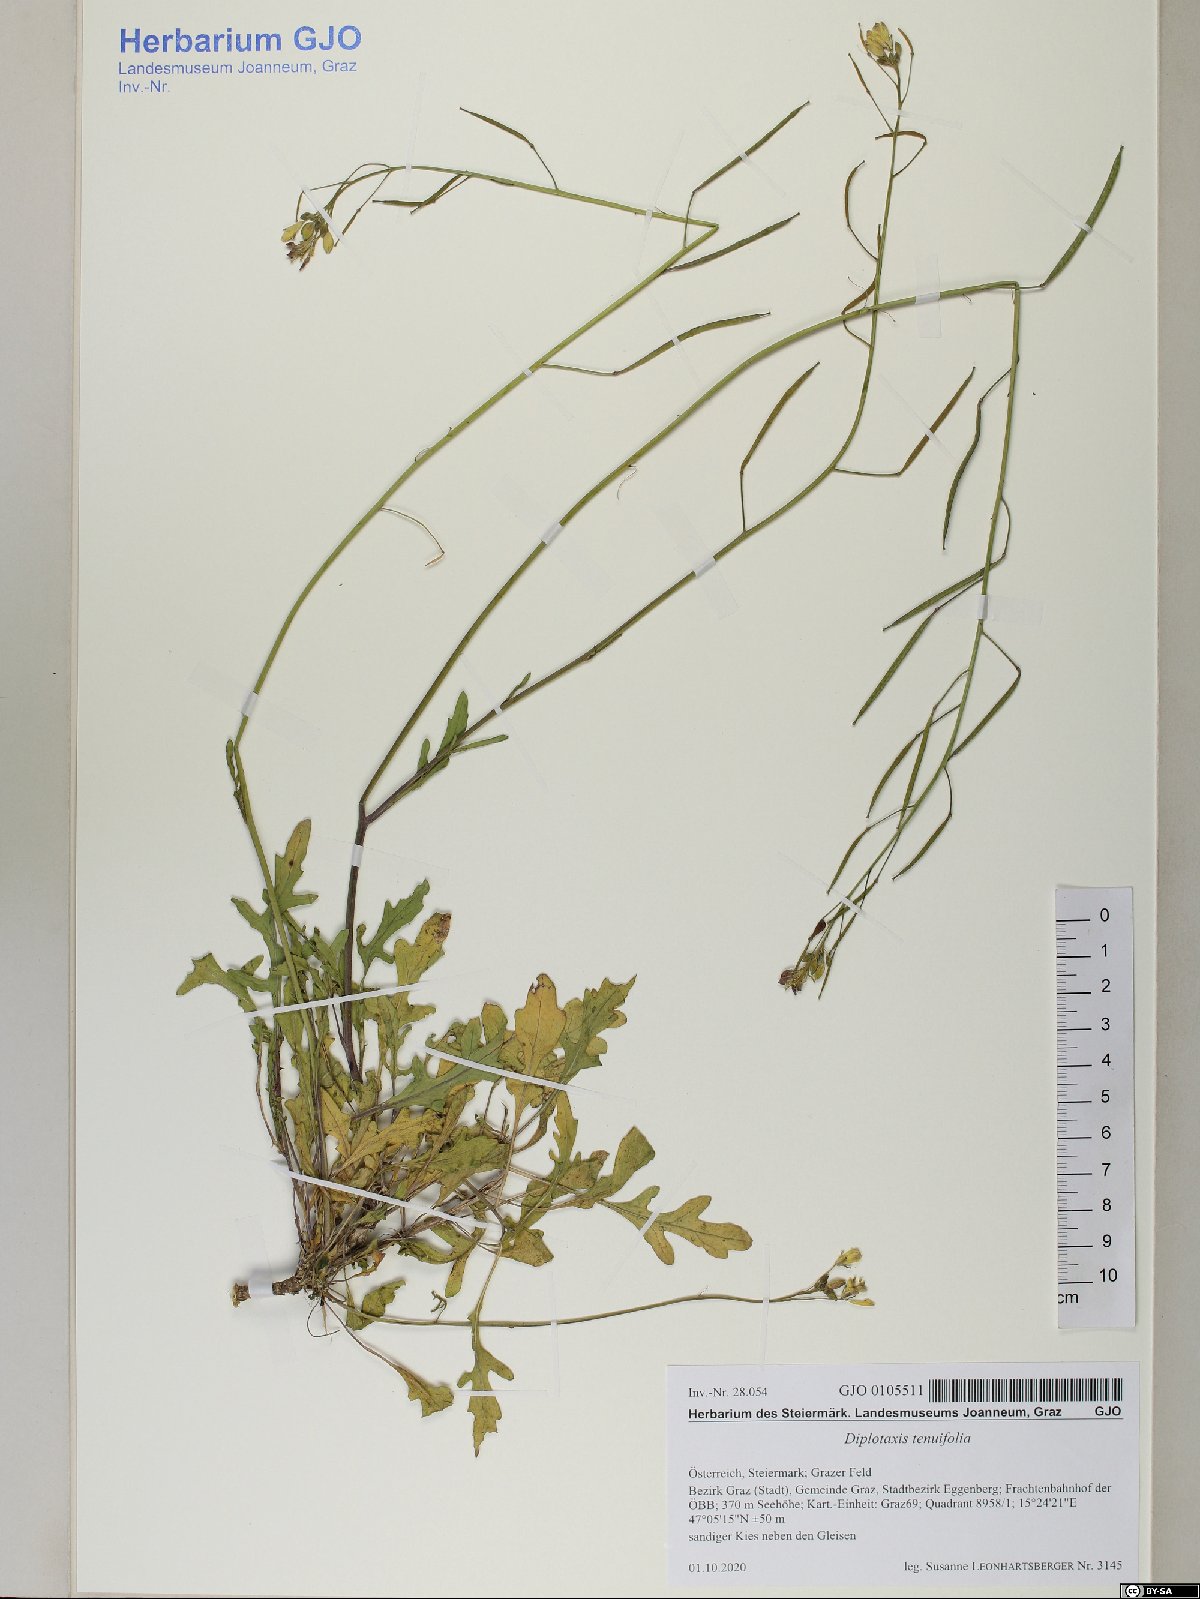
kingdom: Plantae
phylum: Tracheophyta
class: Magnoliopsida
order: Brassicales
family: Brassicaceae
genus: Diplotaxis
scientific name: Diplotaxis tenuifolia
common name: Perennial wall-rocket
